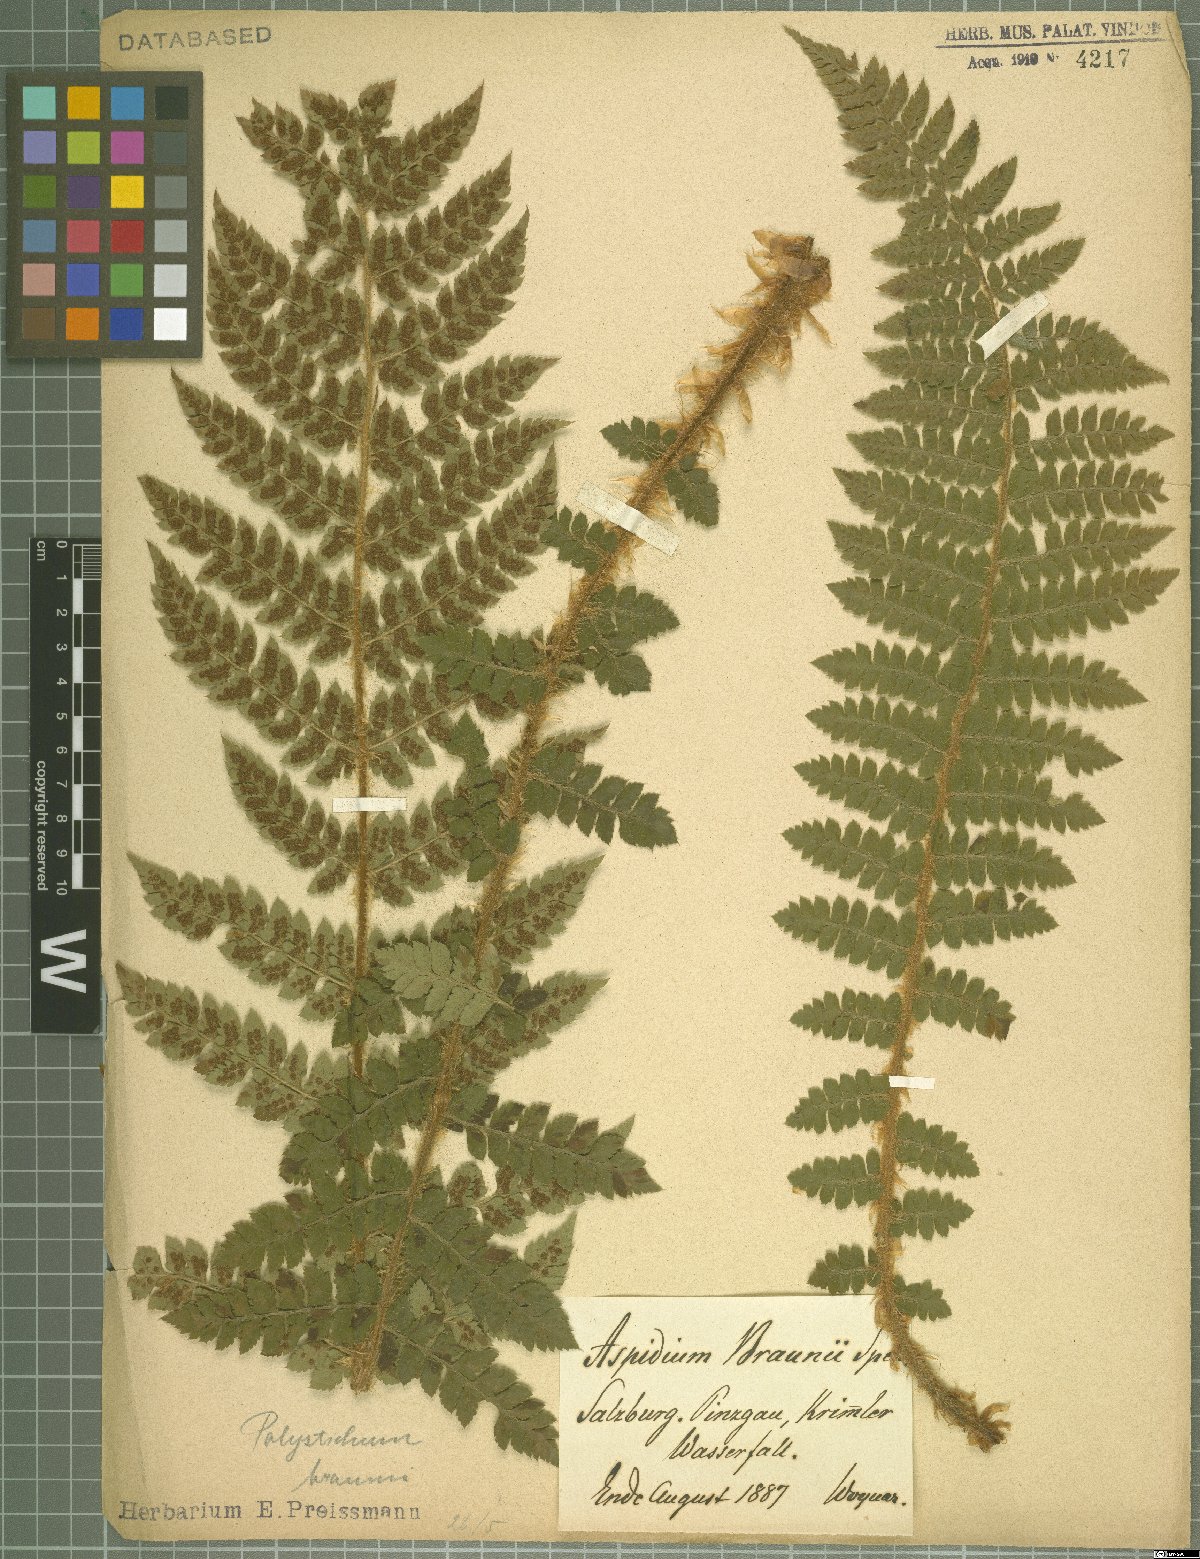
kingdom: Plantae
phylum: Tracheophyta
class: Polypodiopsida
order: Polypodiales
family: Dryopteridaceae
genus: Polystichum
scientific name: Polystichum braunii
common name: Braun's holly fern
